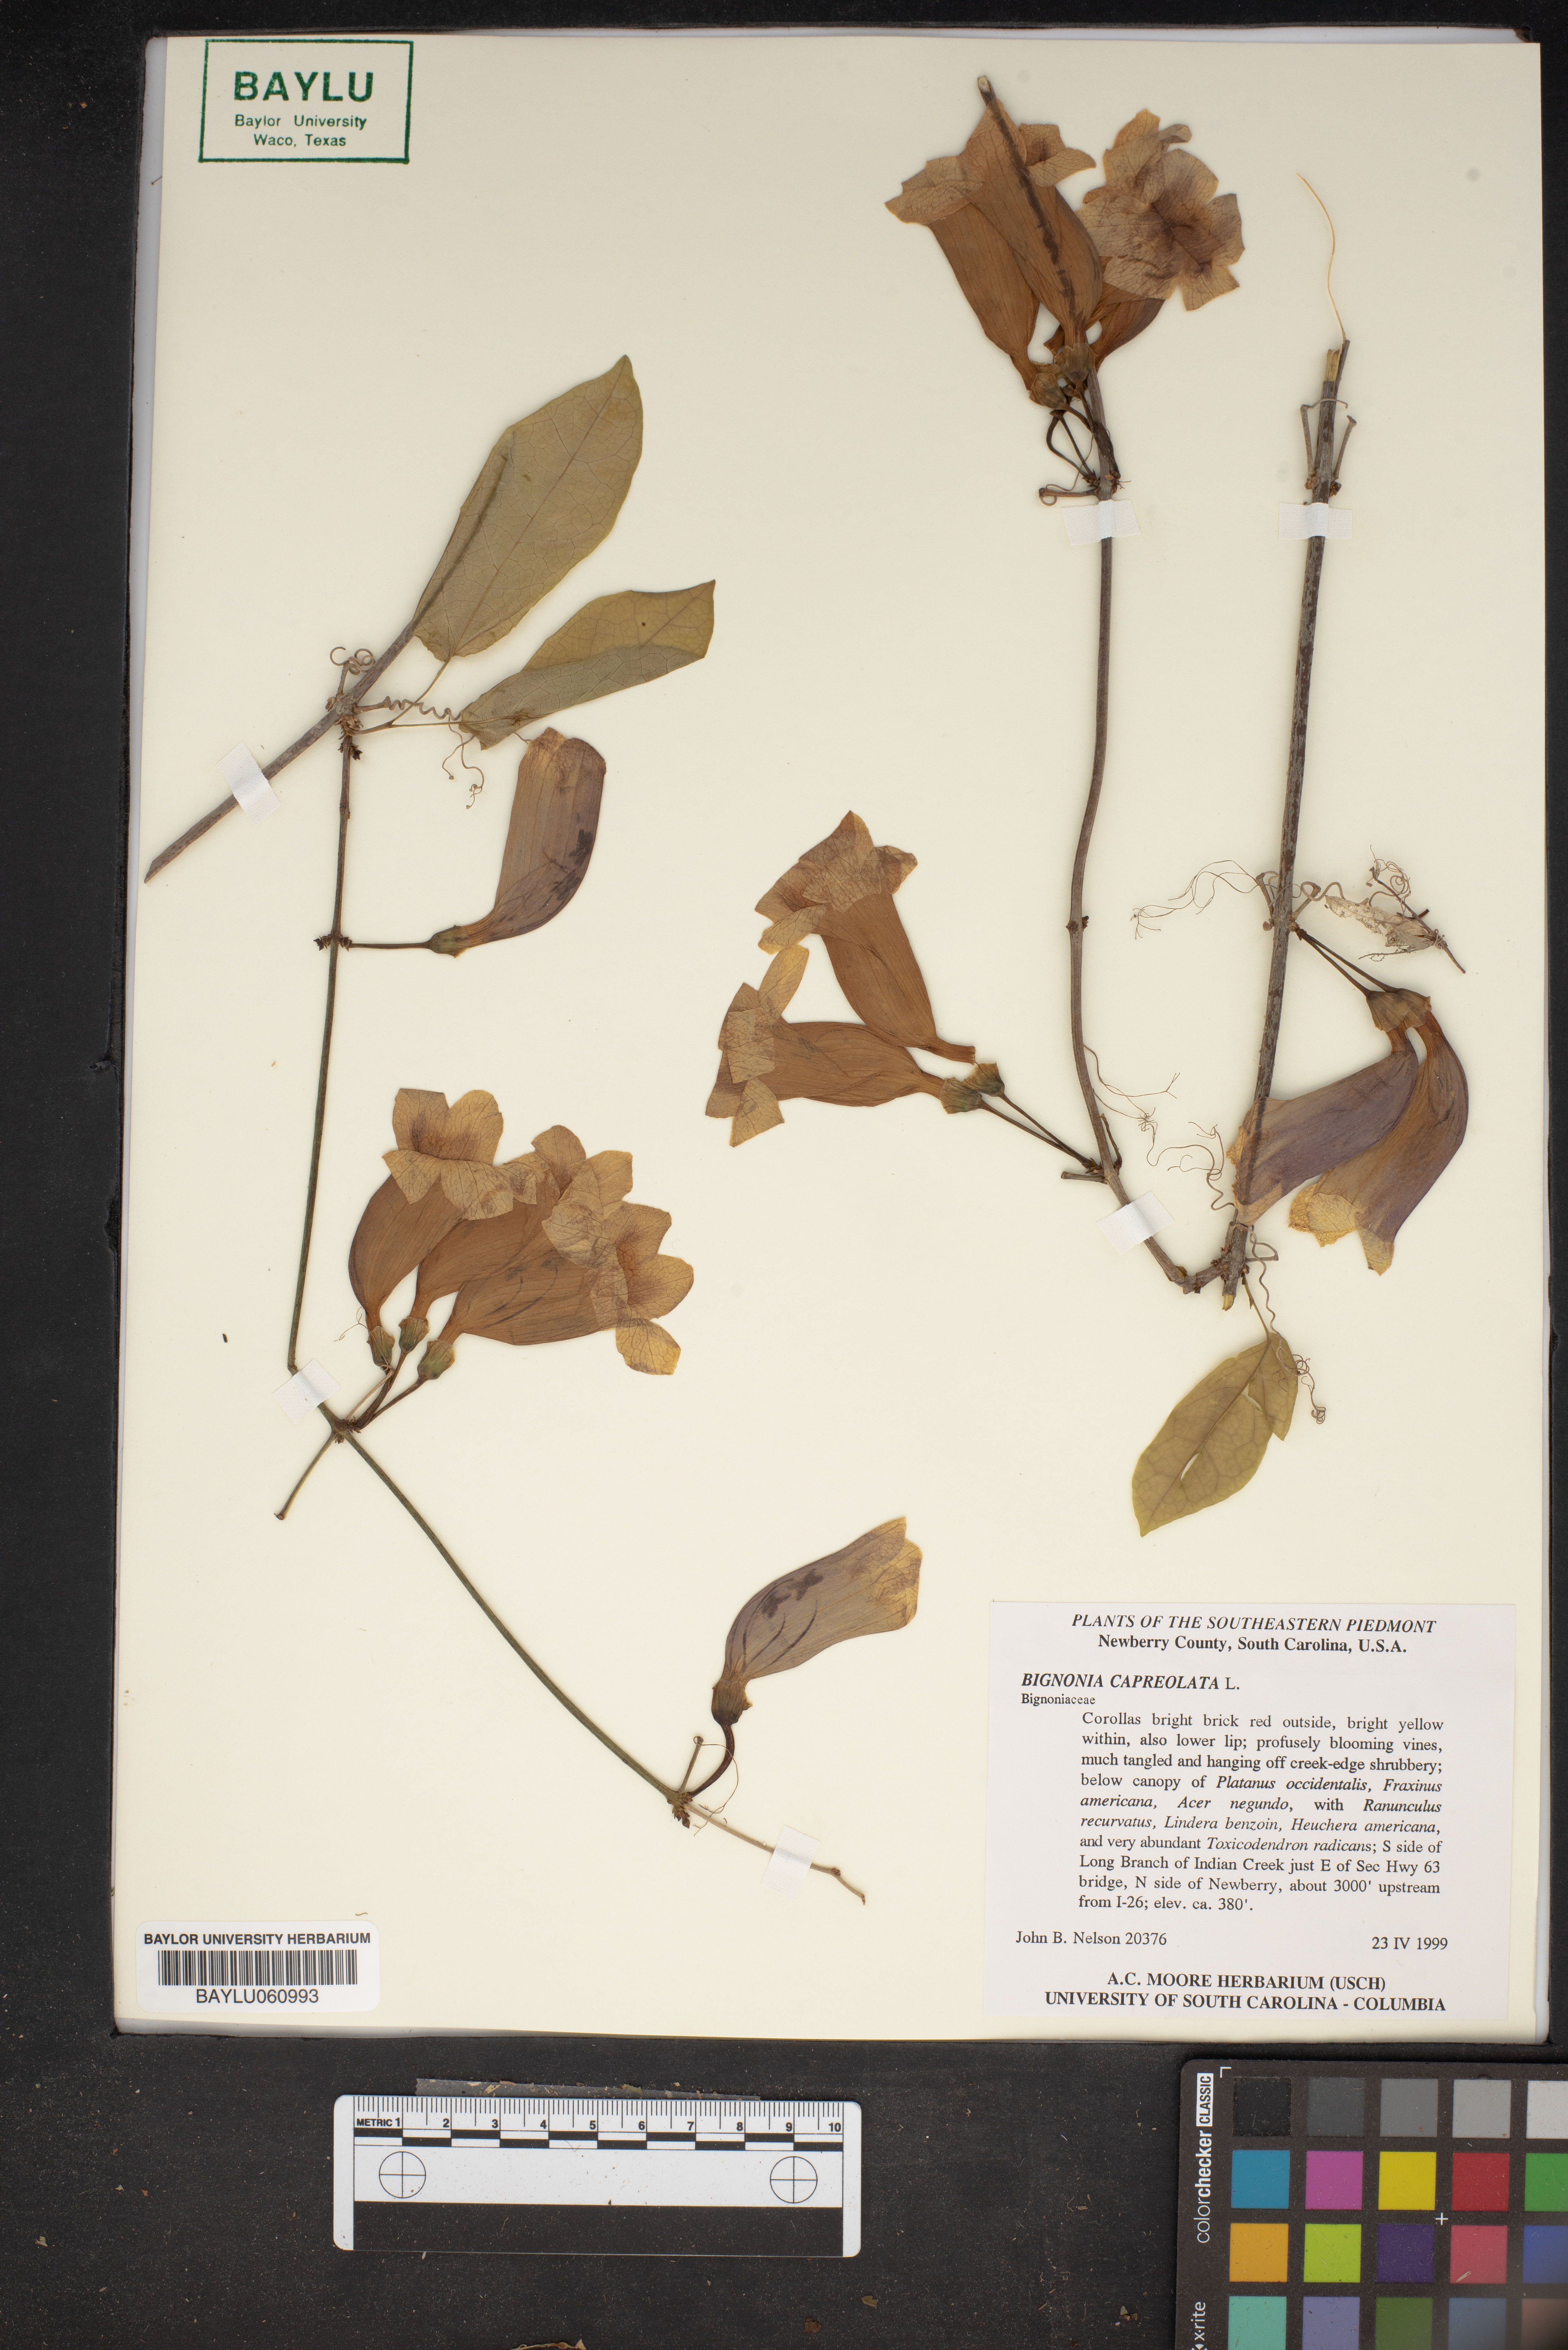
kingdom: Plantae
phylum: Tracheophyta
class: Magnoliopsida
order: Lamiales
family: Bignoniaceae
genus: Bignonia
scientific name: Bignonia capreolata
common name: Crossvine
